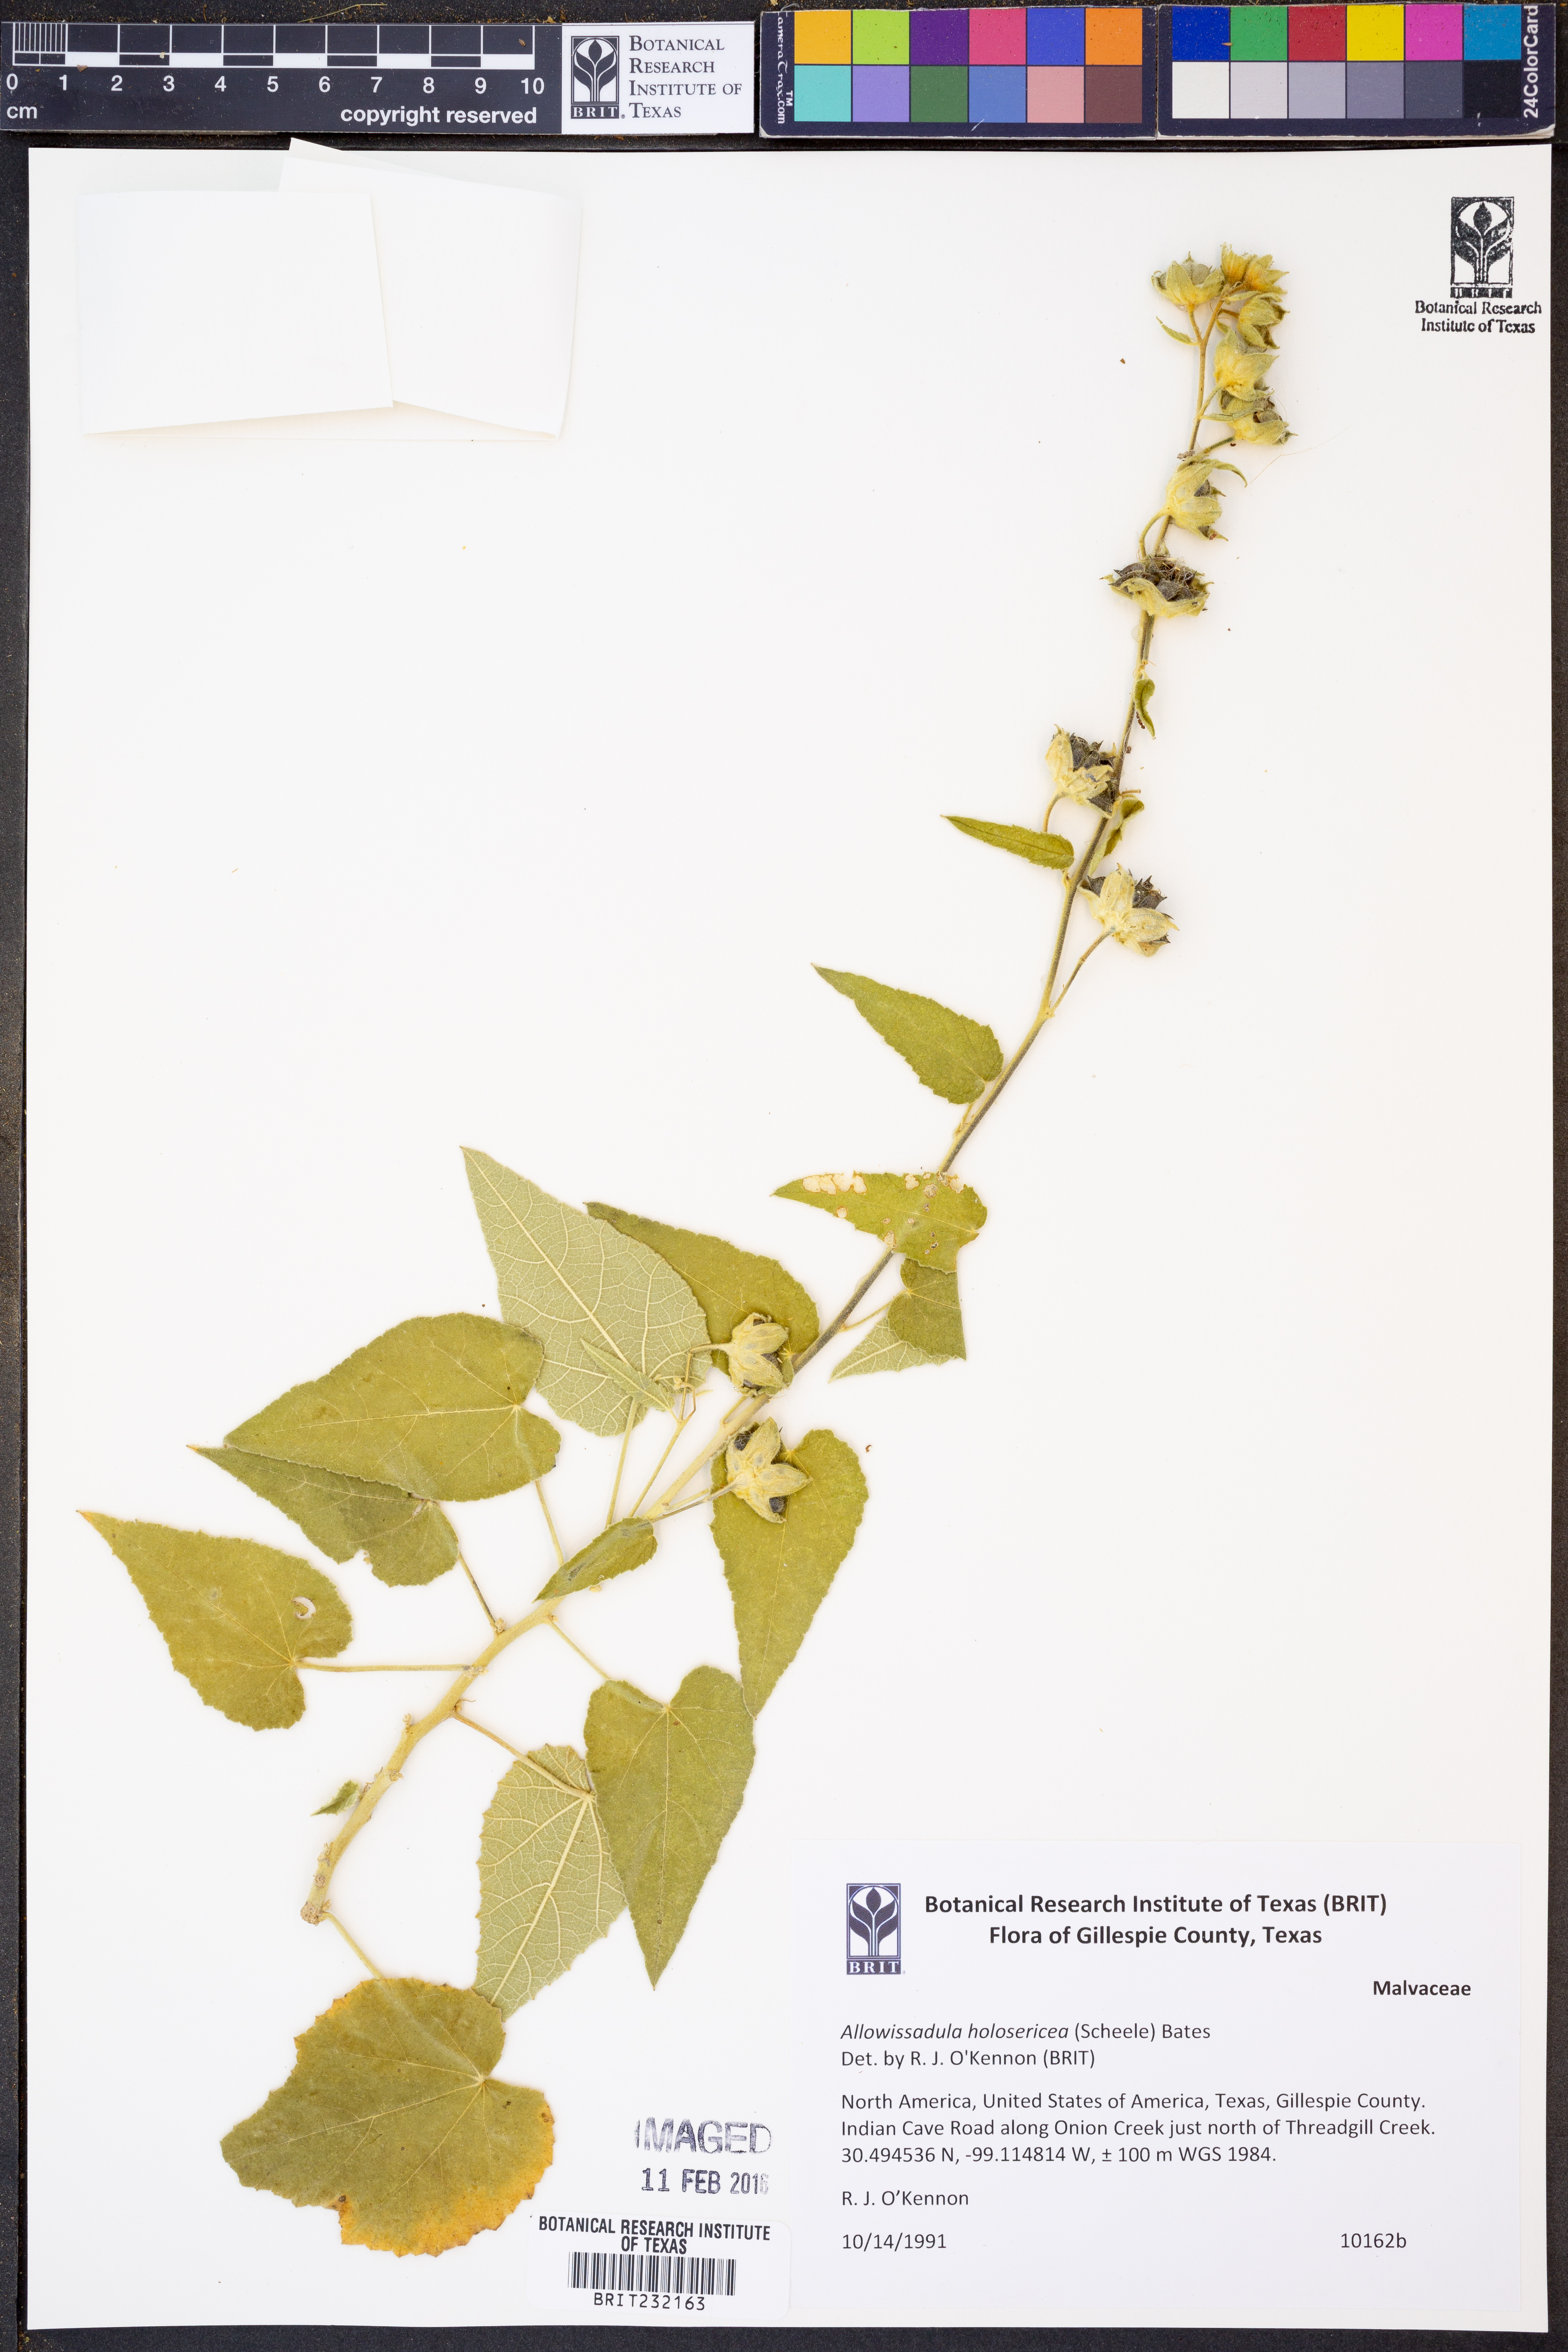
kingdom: Plantae
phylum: Tracheophyta
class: Magnoliopsida
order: Malvales
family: Malvaceae
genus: Allowissadula
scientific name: Allowissadula holosericea
